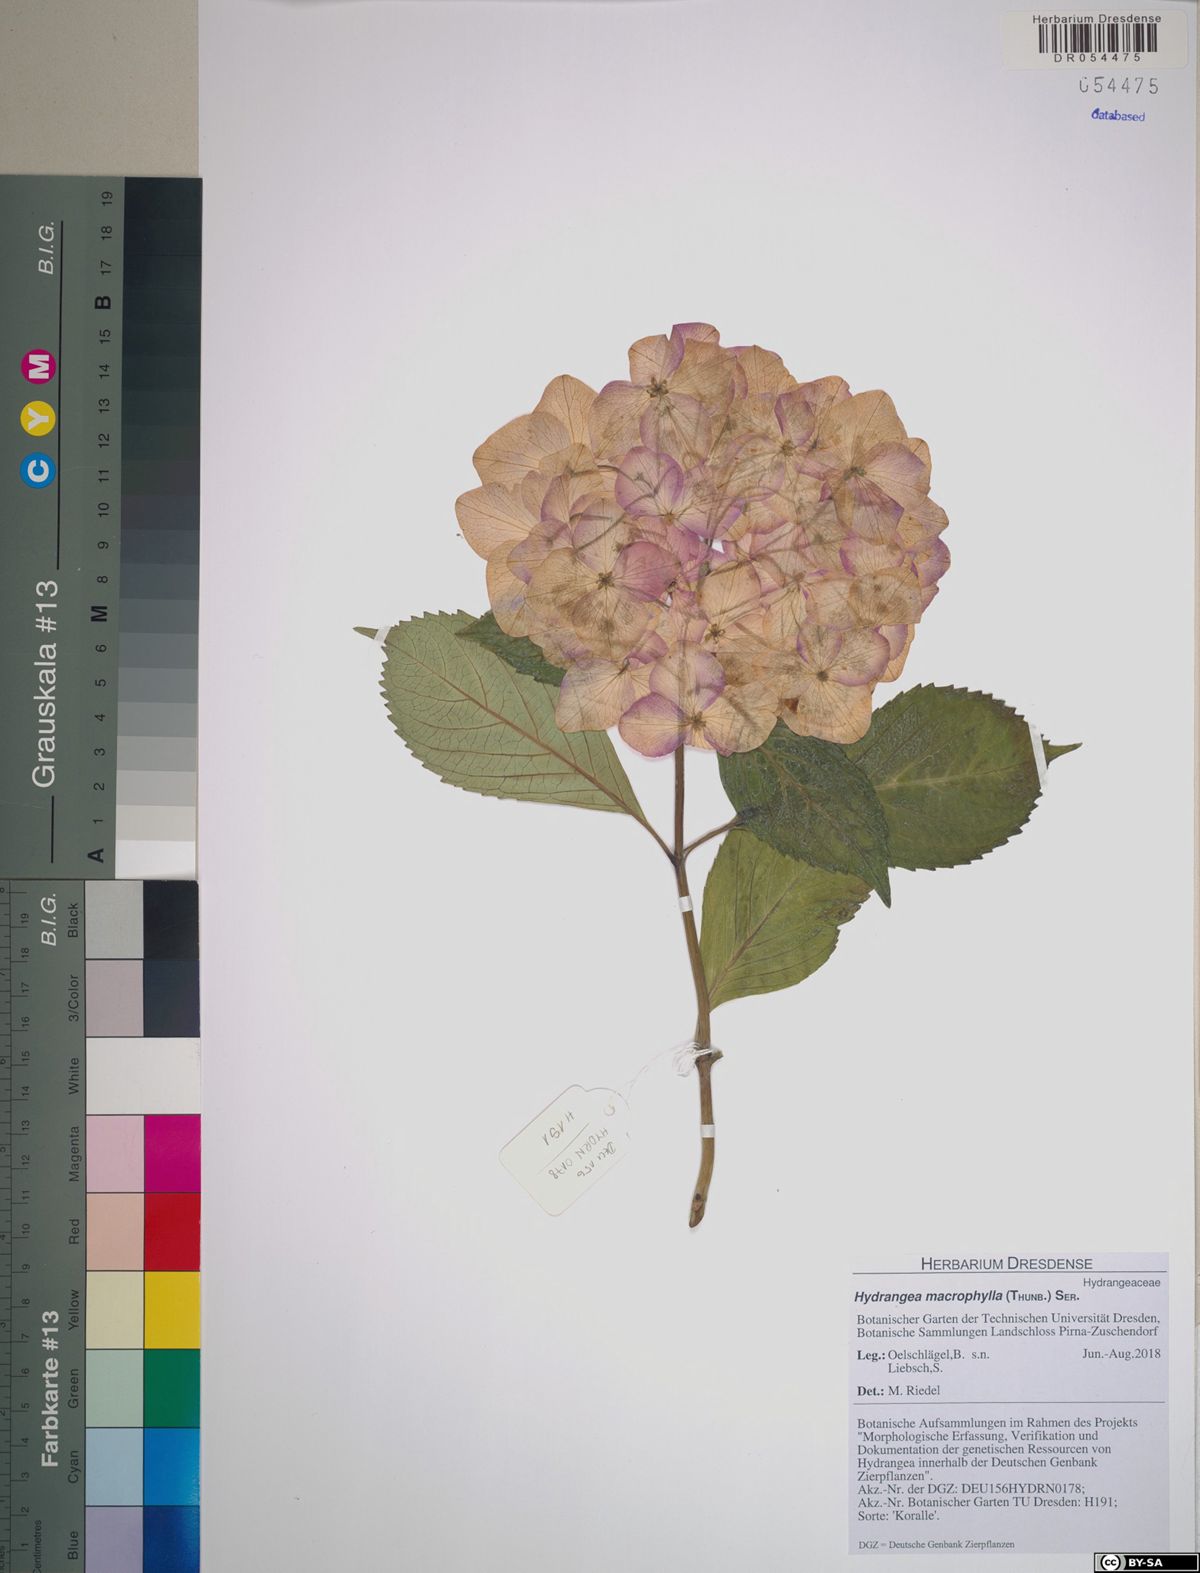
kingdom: Plantae
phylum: Tracheophyta
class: Magnoliopsida
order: Cornales
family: Hydrangeaceae
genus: Hydrangea
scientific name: Hydrangea macrophylla
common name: Hydrangea
